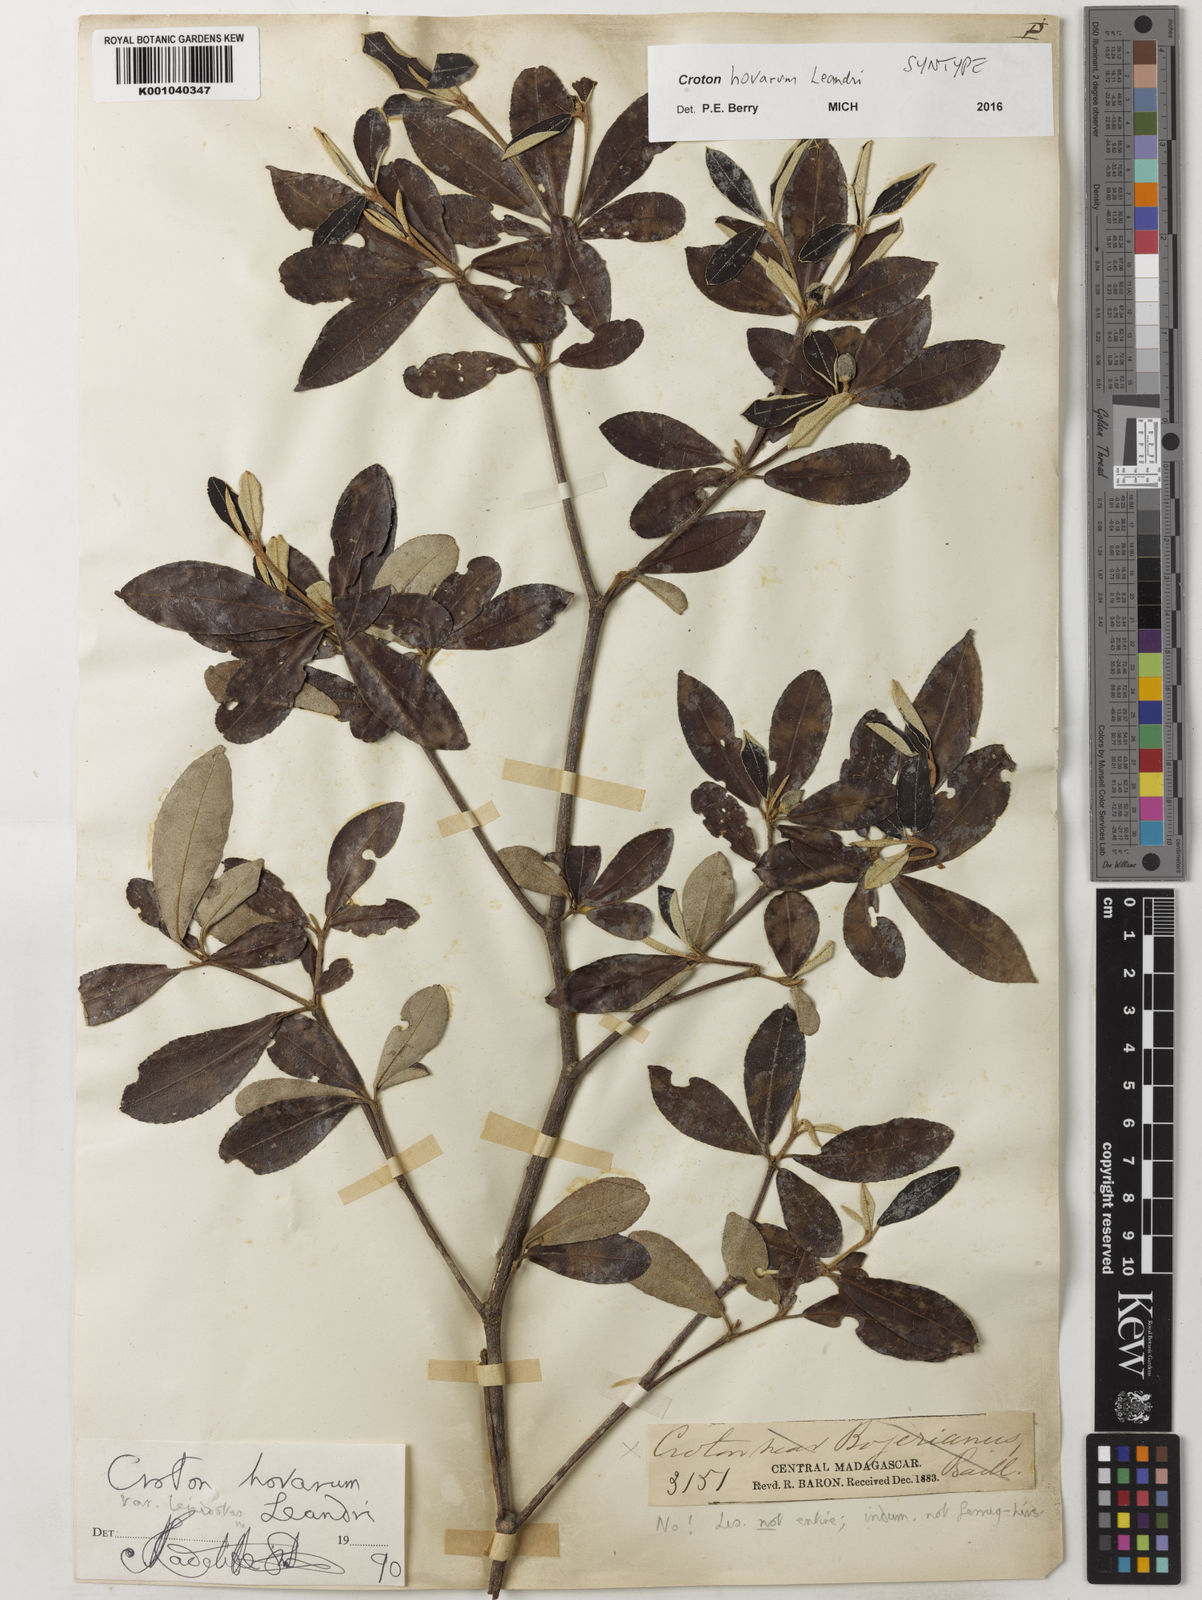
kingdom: Plantae
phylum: Tracheophyta
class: Magnoliopsida
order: Malpighiales
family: Euphorbiaceae
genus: Croton
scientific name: Croton hovarum
